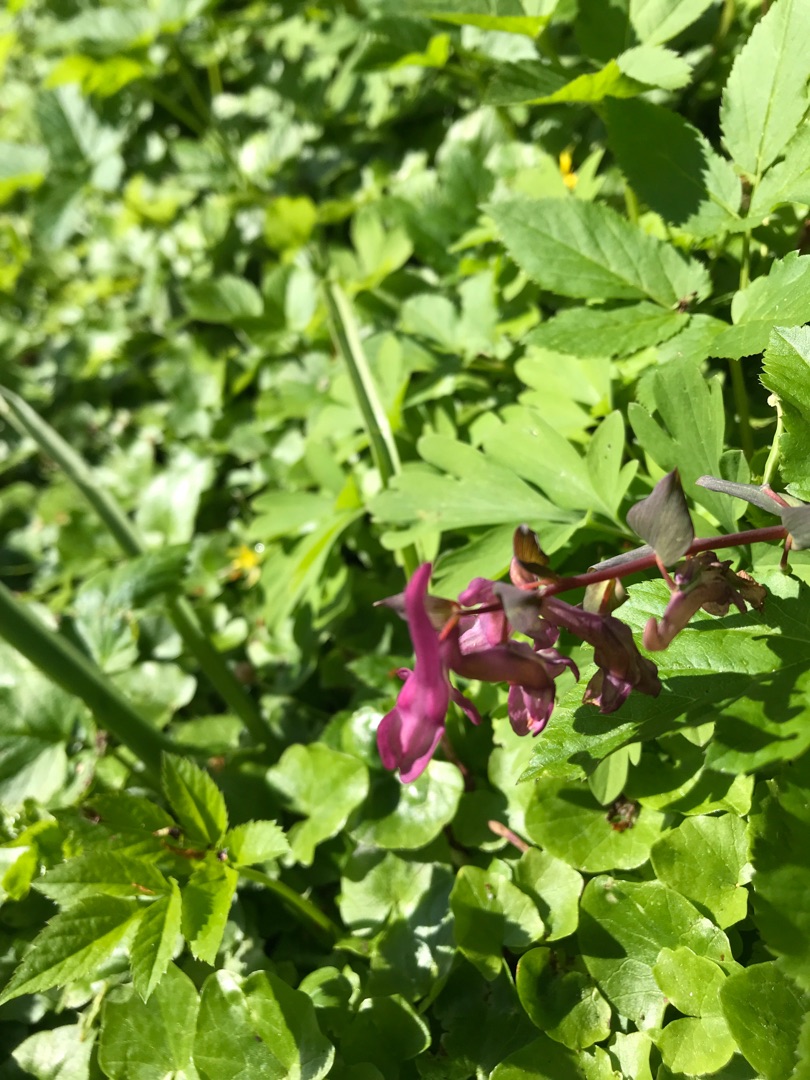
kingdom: Plantae
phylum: Tracheophyta
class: Magnoliopsida
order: Ranunculales
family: Papaveraceae
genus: Corydalis
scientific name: Corydalis cava
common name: Hulrodet lærkespore
